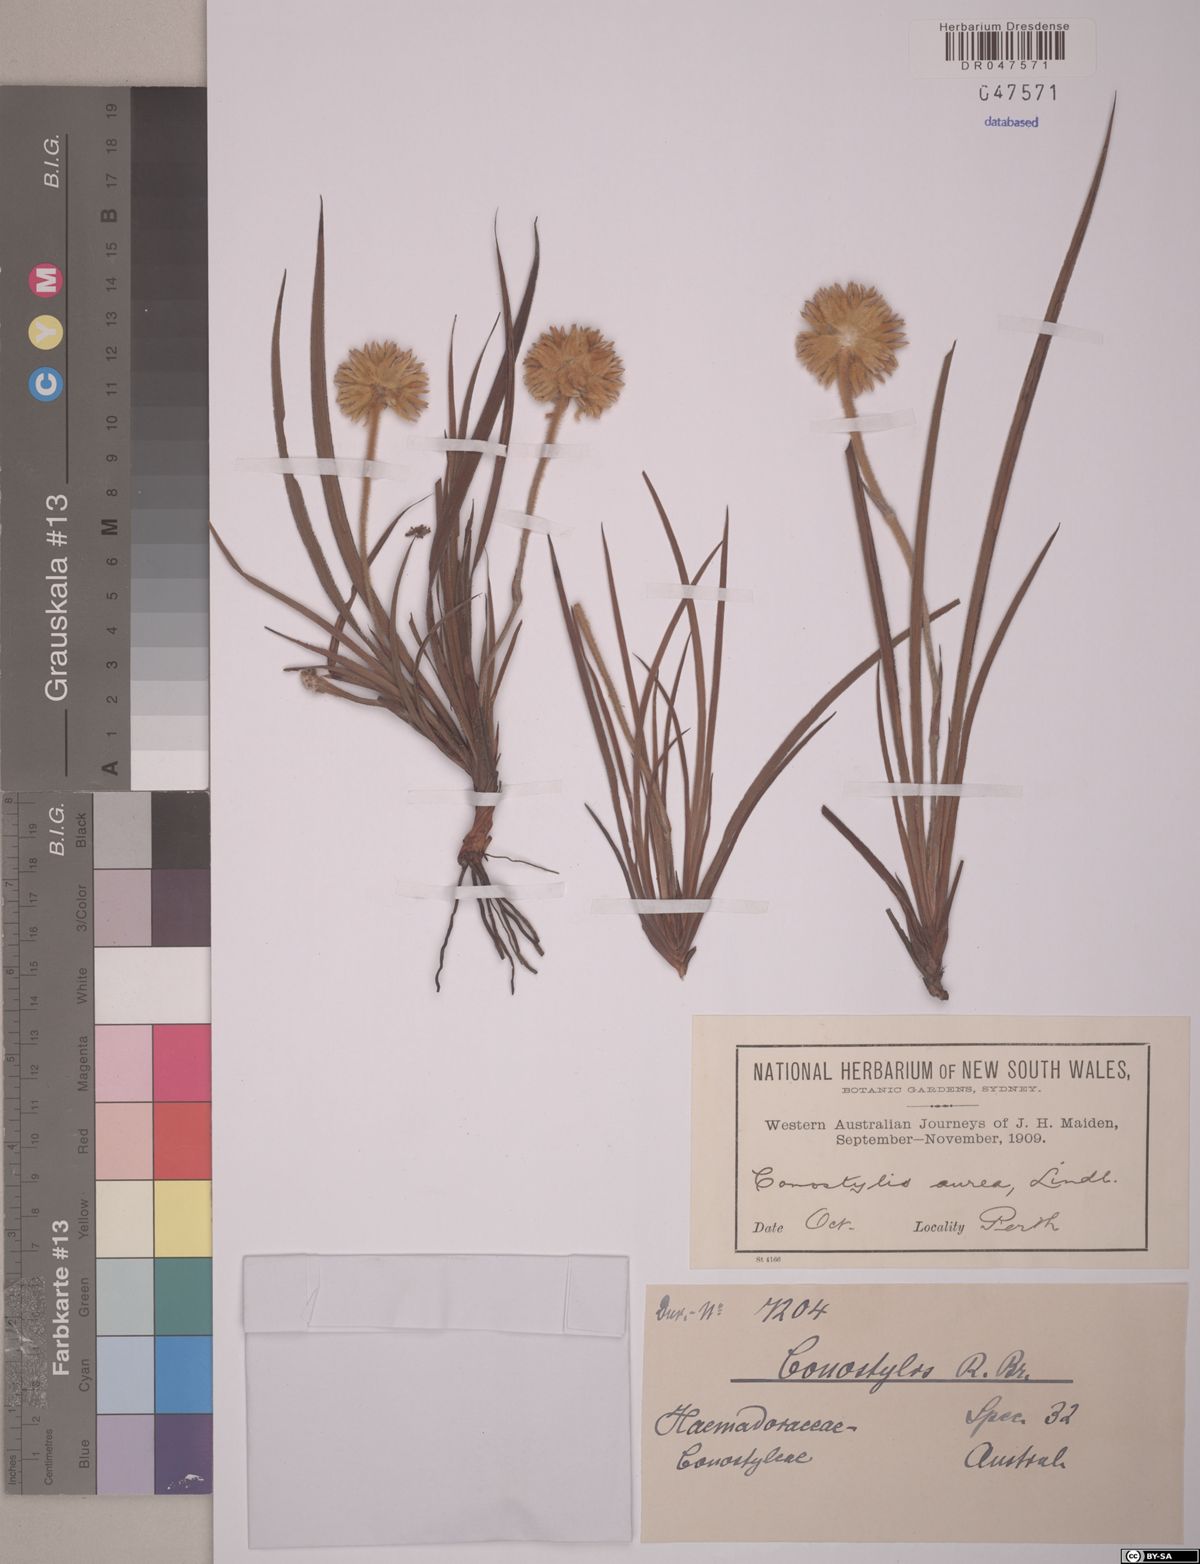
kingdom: Plantae
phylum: Tracheophyta
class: Liliopsida
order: Commelinales
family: Haemodoraceae
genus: Conostylis
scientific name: Conostylis aurea
